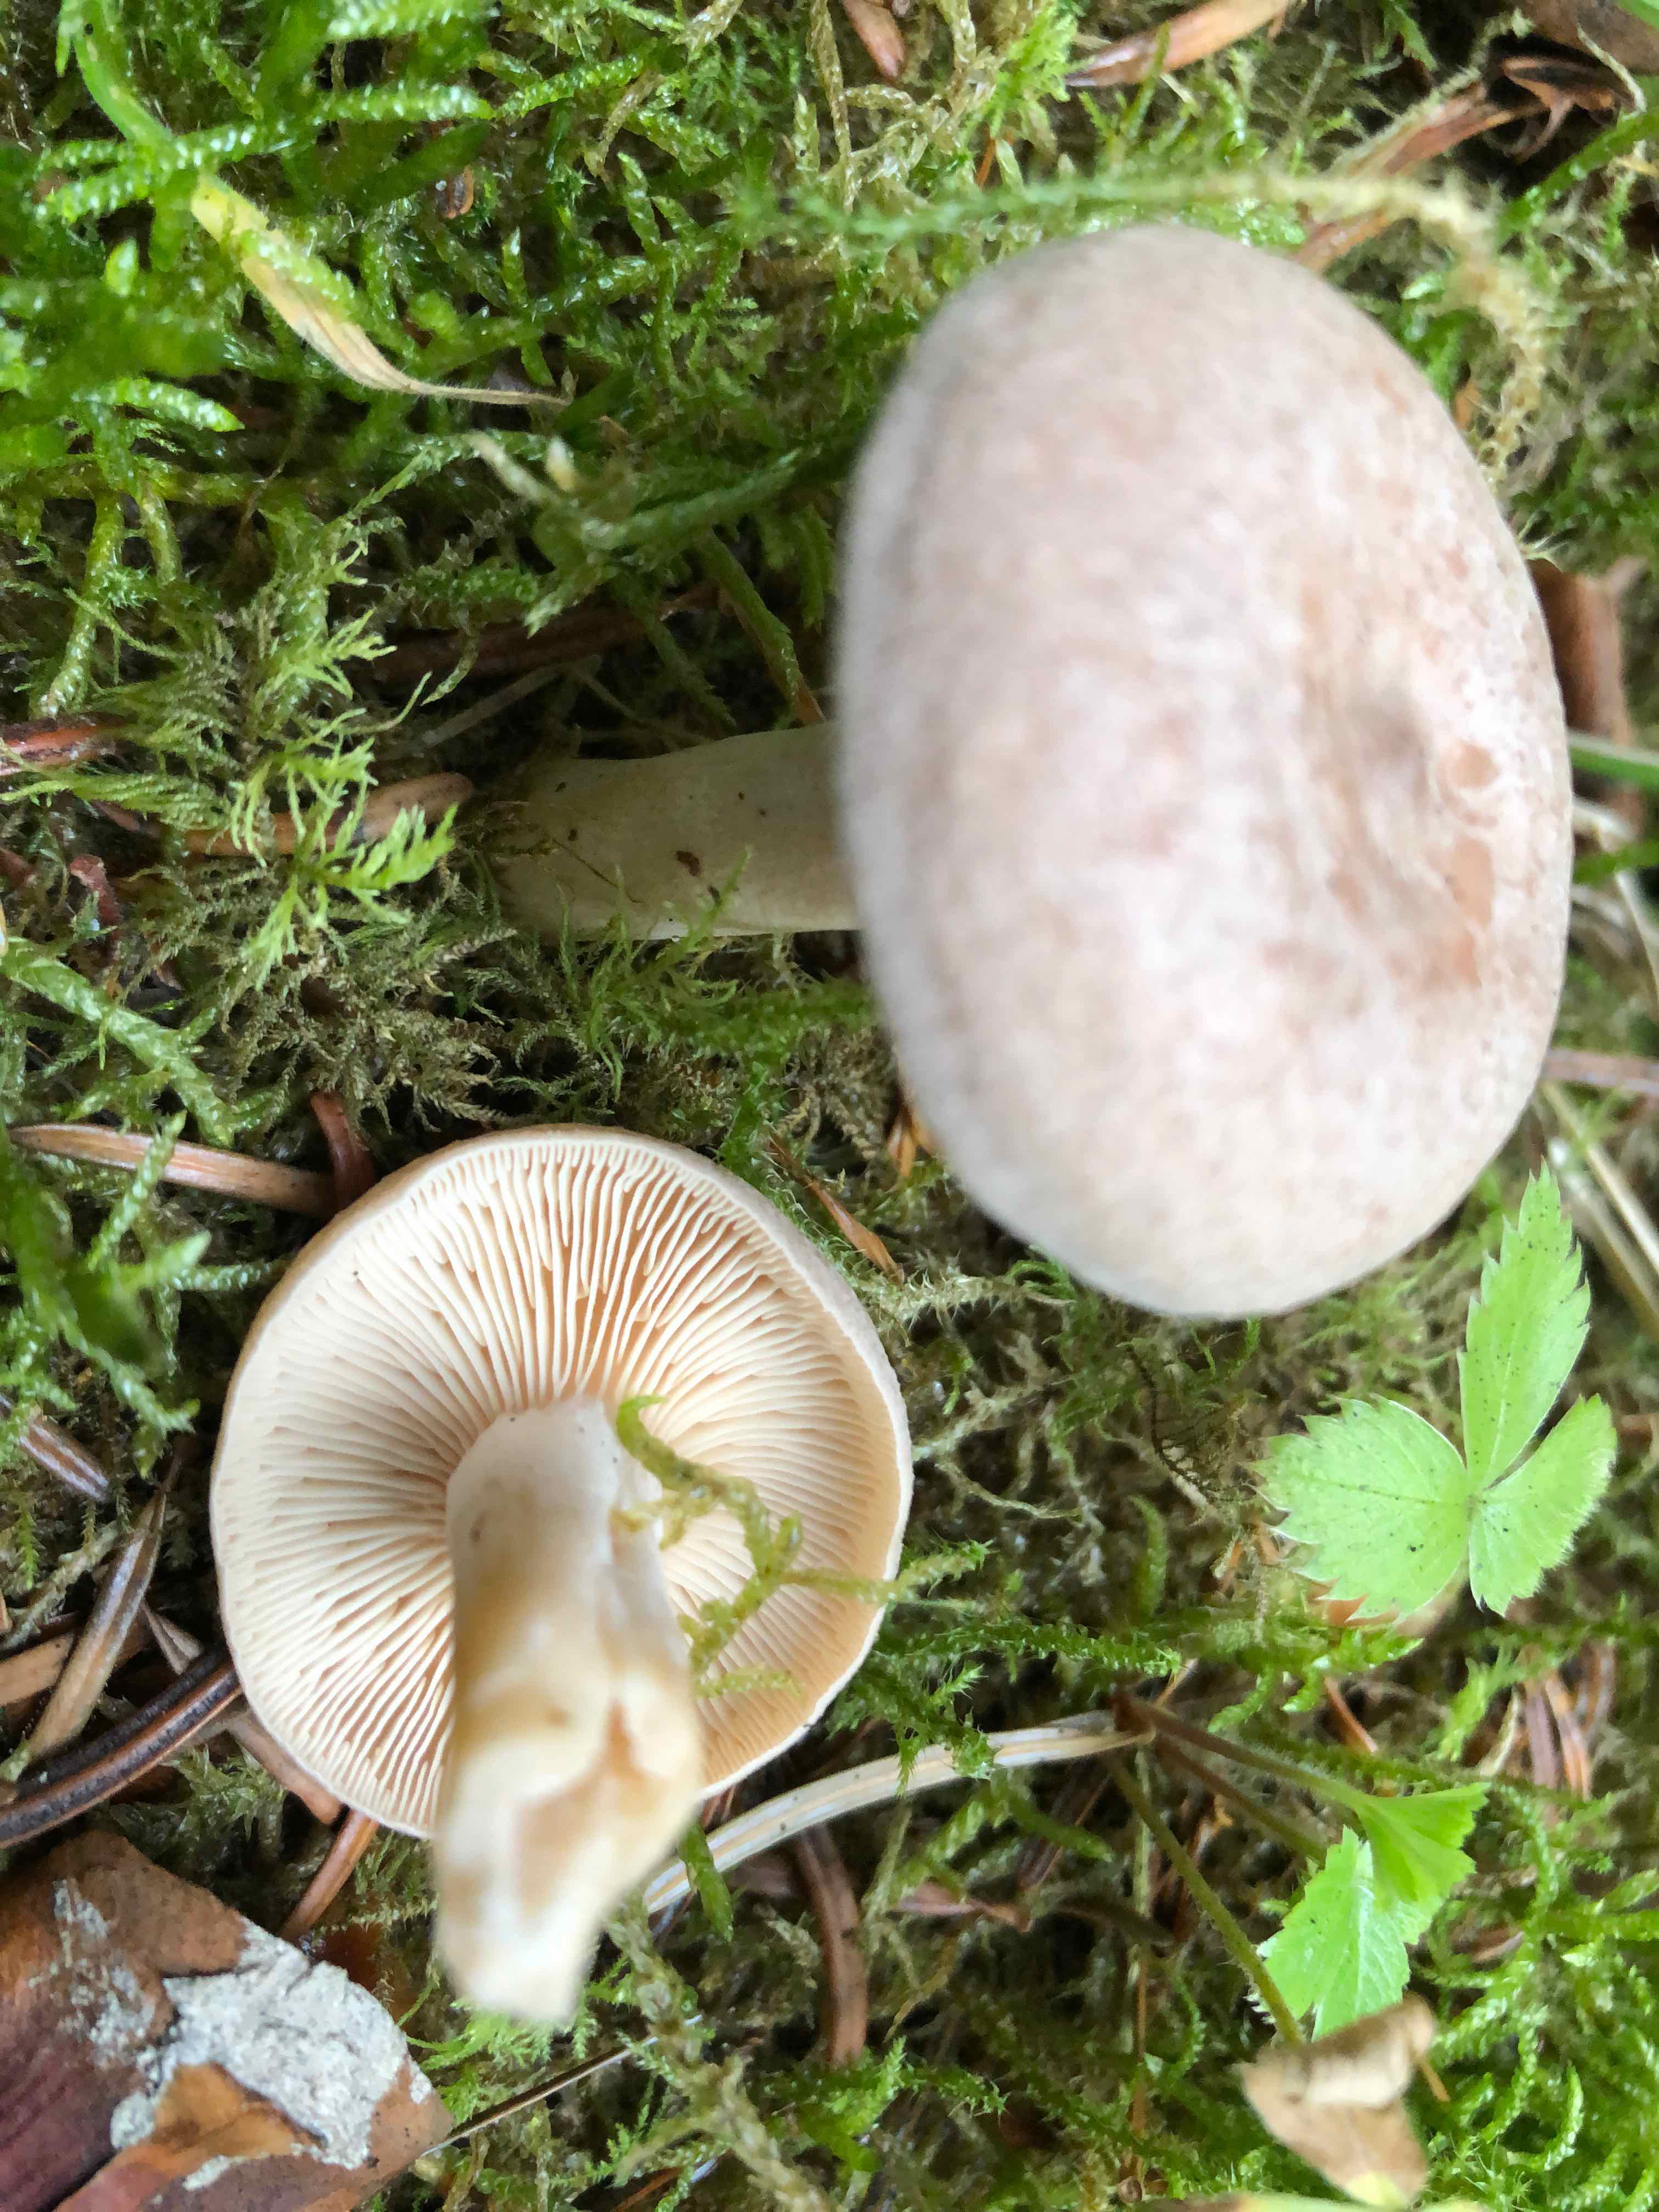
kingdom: Fungi
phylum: Basidiomycota
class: Agaricomycetes
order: Russulales
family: Russulaceae
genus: Lactarius
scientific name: Lactarius glyciosmus
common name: kokos-mælkehat
